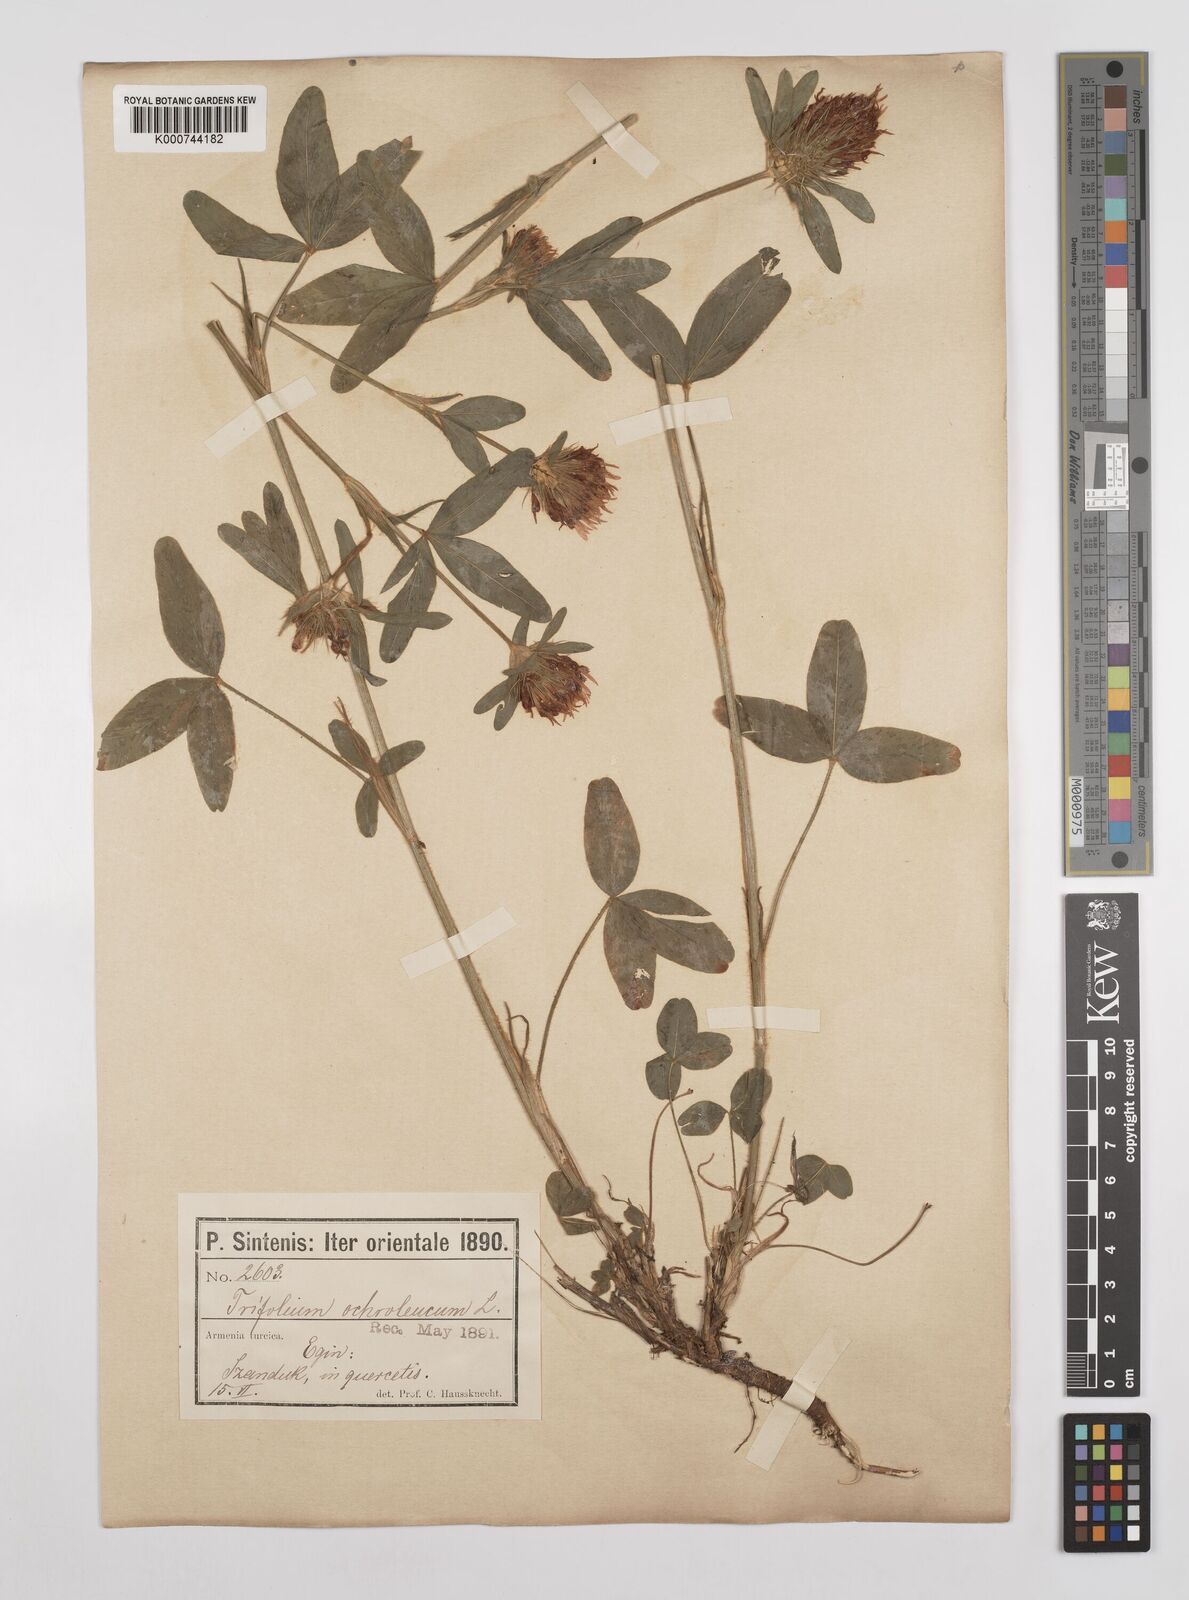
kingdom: Plantae
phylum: Tracheophyta
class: Magnoliopsida
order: Fabales
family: Fabaceae
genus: Trifolium
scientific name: Trifolium
